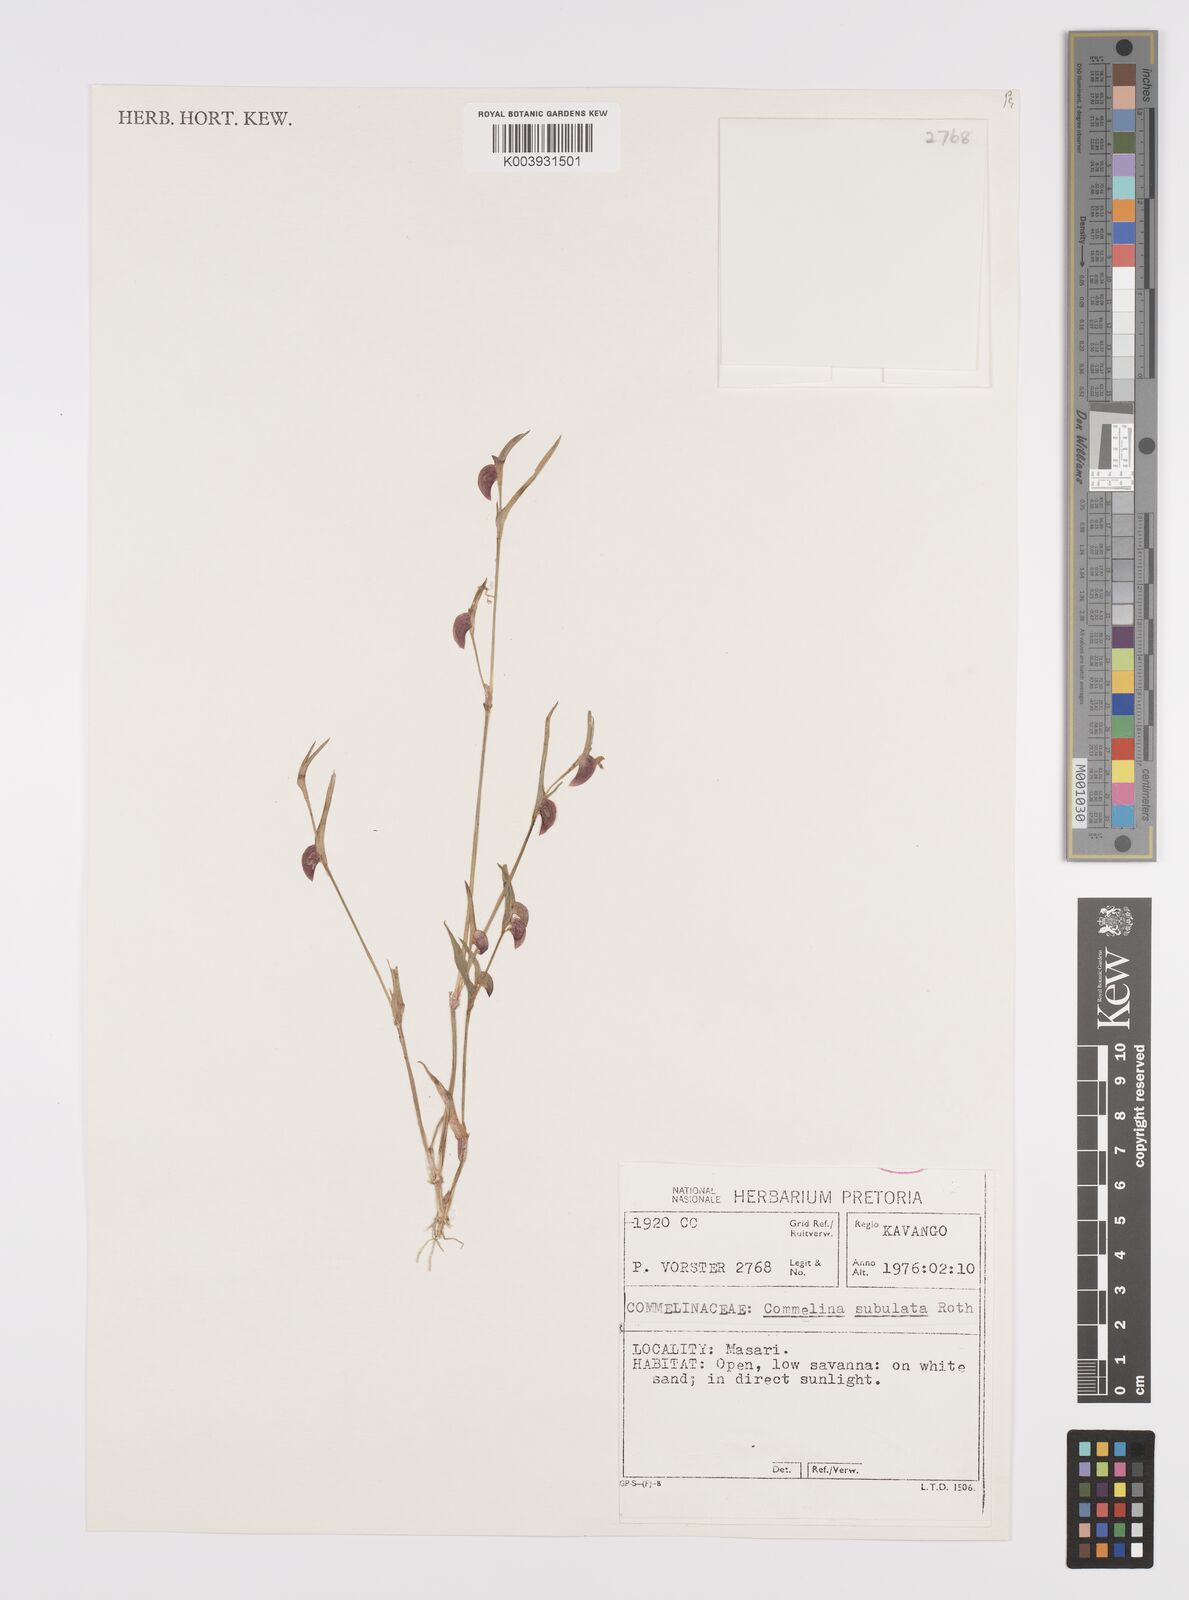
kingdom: Plantae
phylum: Tracheophyta
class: Liliopsida
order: Commelinales
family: Commelinaceae
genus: Commelina
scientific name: Commelina subulata
